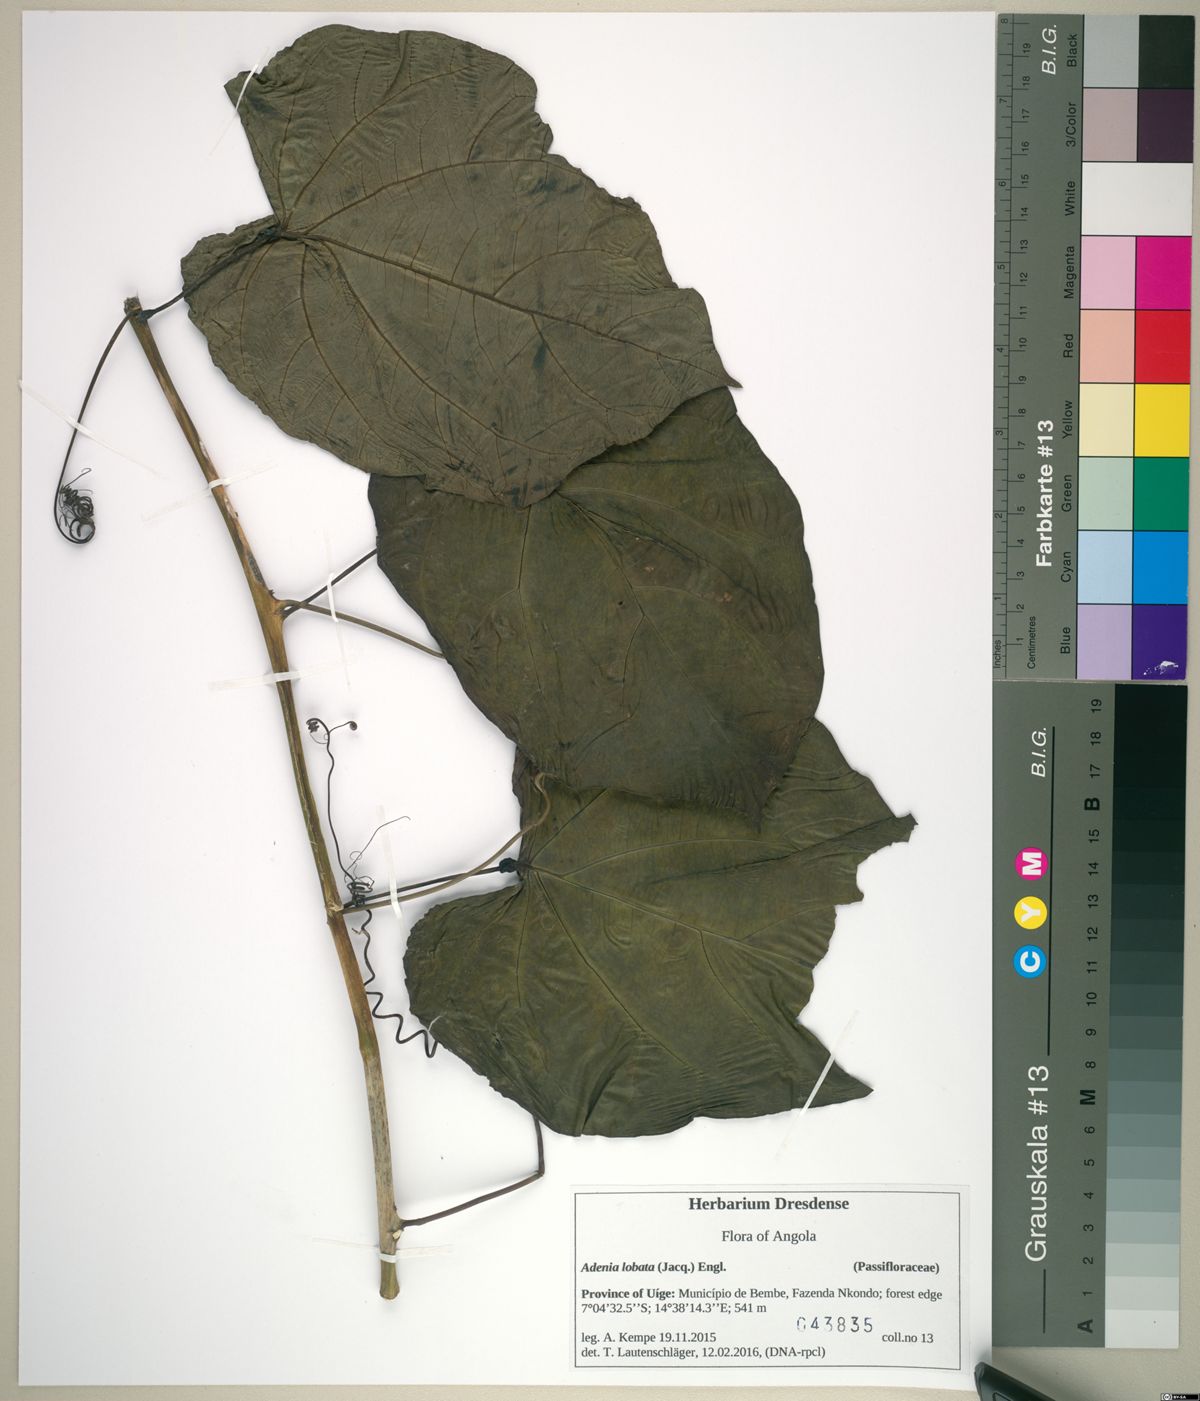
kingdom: Plantae
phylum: Tracheophyta
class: Magnoliopsida
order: Malpighiales
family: Passifloraceae
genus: Adenia
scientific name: Adenia lobata
